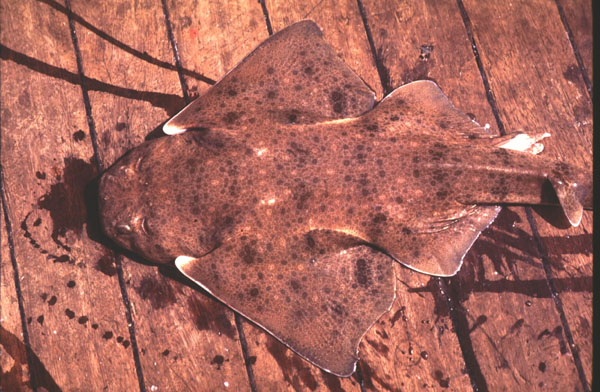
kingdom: Animalia
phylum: Chordata
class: Elasmobranchii
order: Squatiniformes
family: Squatinidae
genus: Squatina
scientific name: Squatina africana
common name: African angelshark
